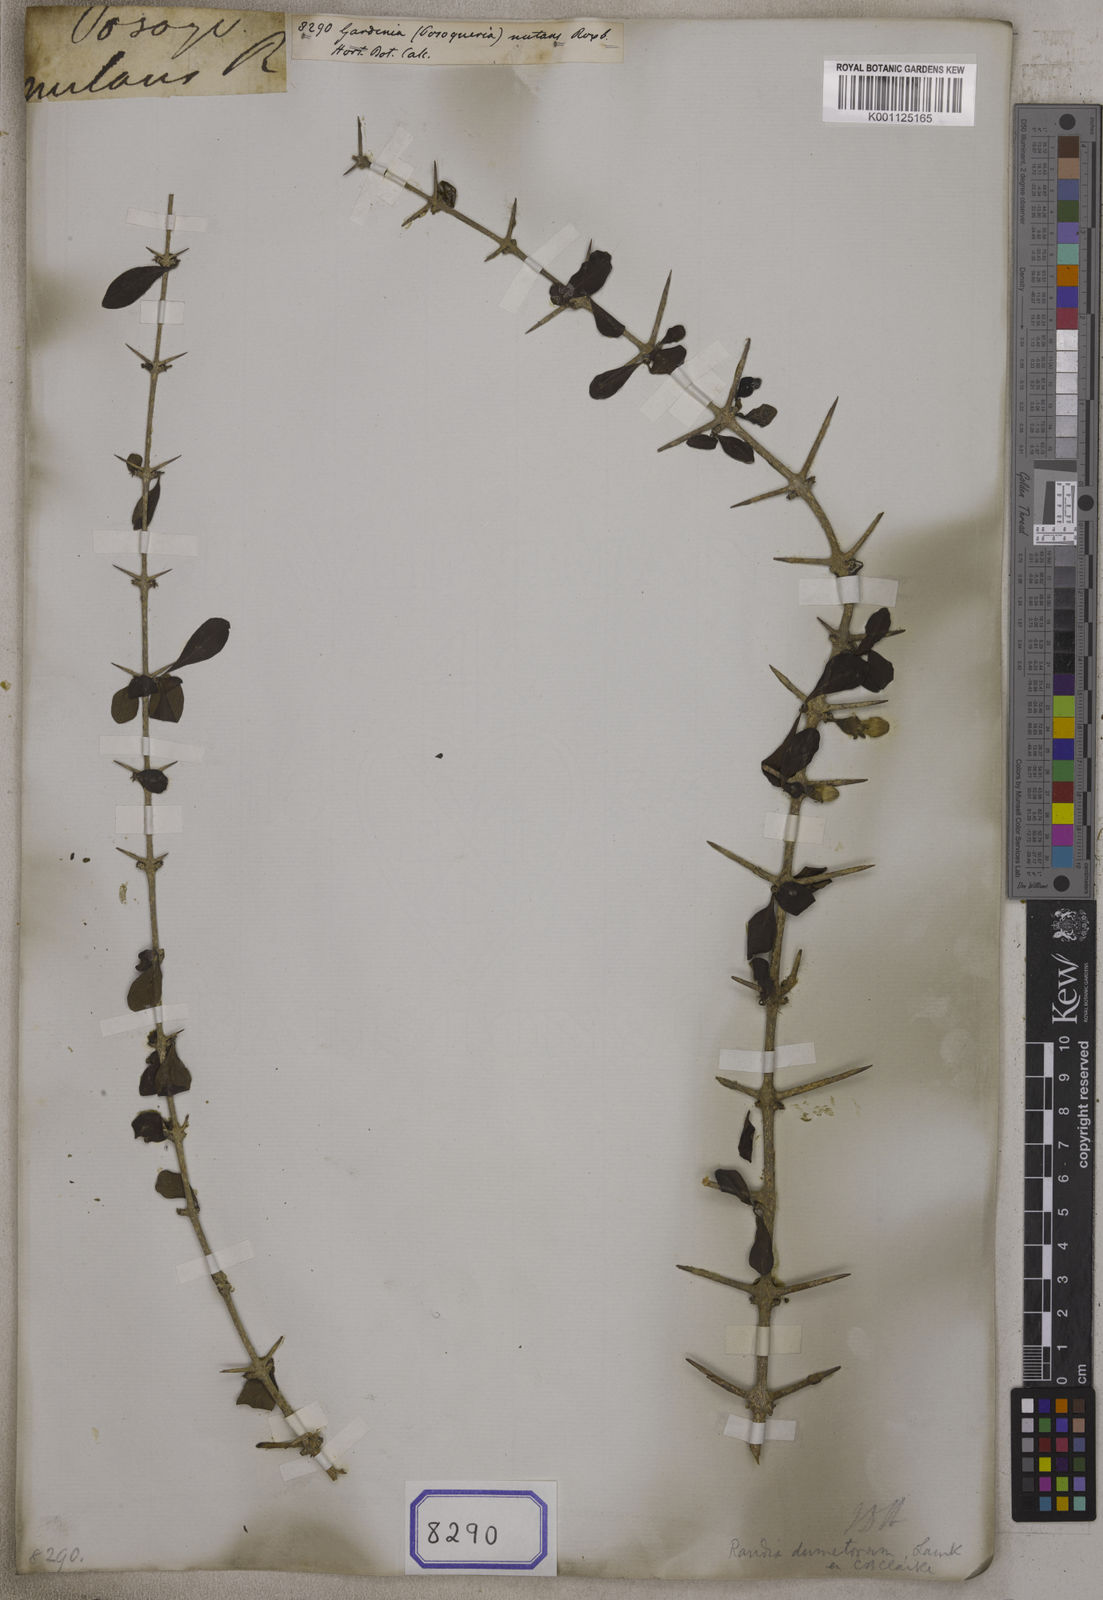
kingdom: Plantae
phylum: Tracheophyta
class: Magnoliopsida
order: Gentianales
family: Rubiaceae
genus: Catunaregam
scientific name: Catunaregam nutans
